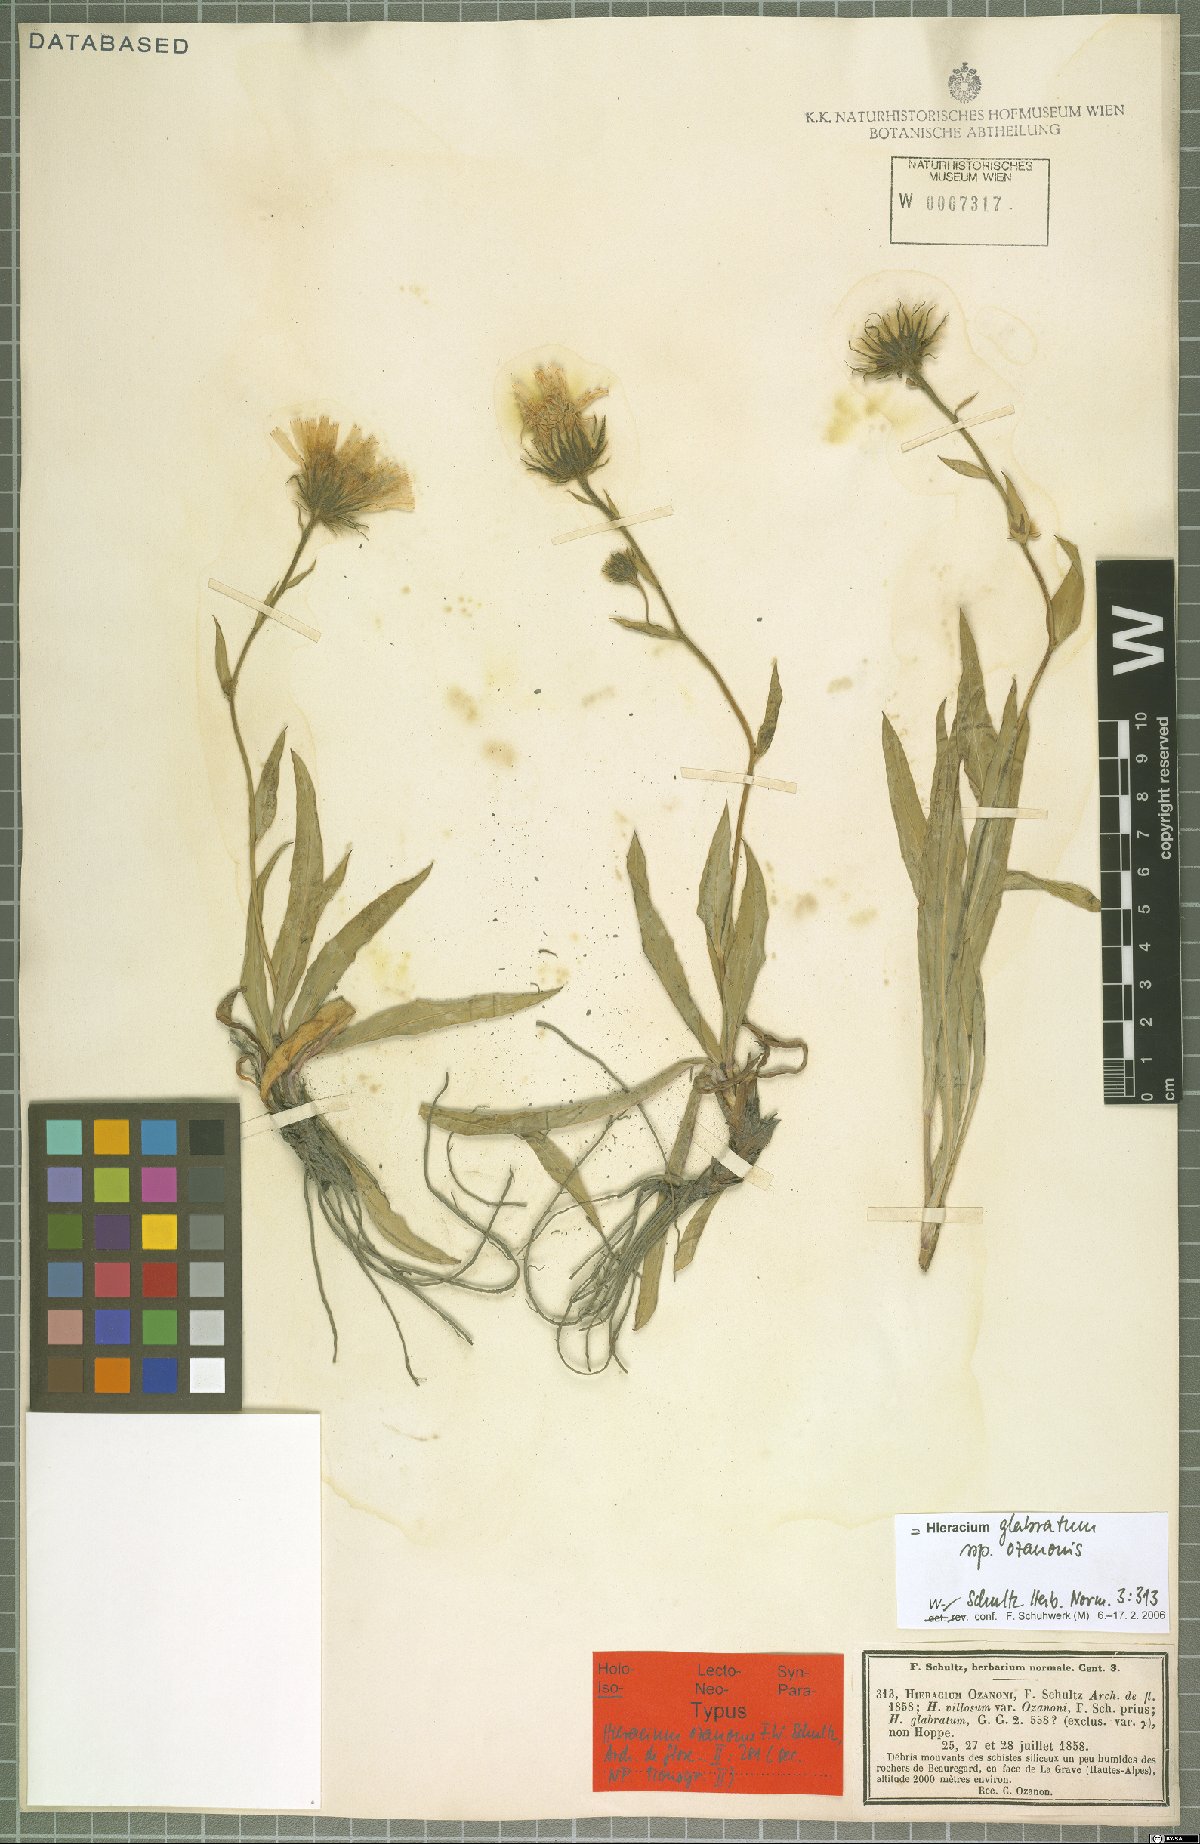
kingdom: Plantae
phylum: Tracheophyta
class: Magnoliopsida
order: Asterales
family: Asteraceae
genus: Hieracium
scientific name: Hieracium glabratum
